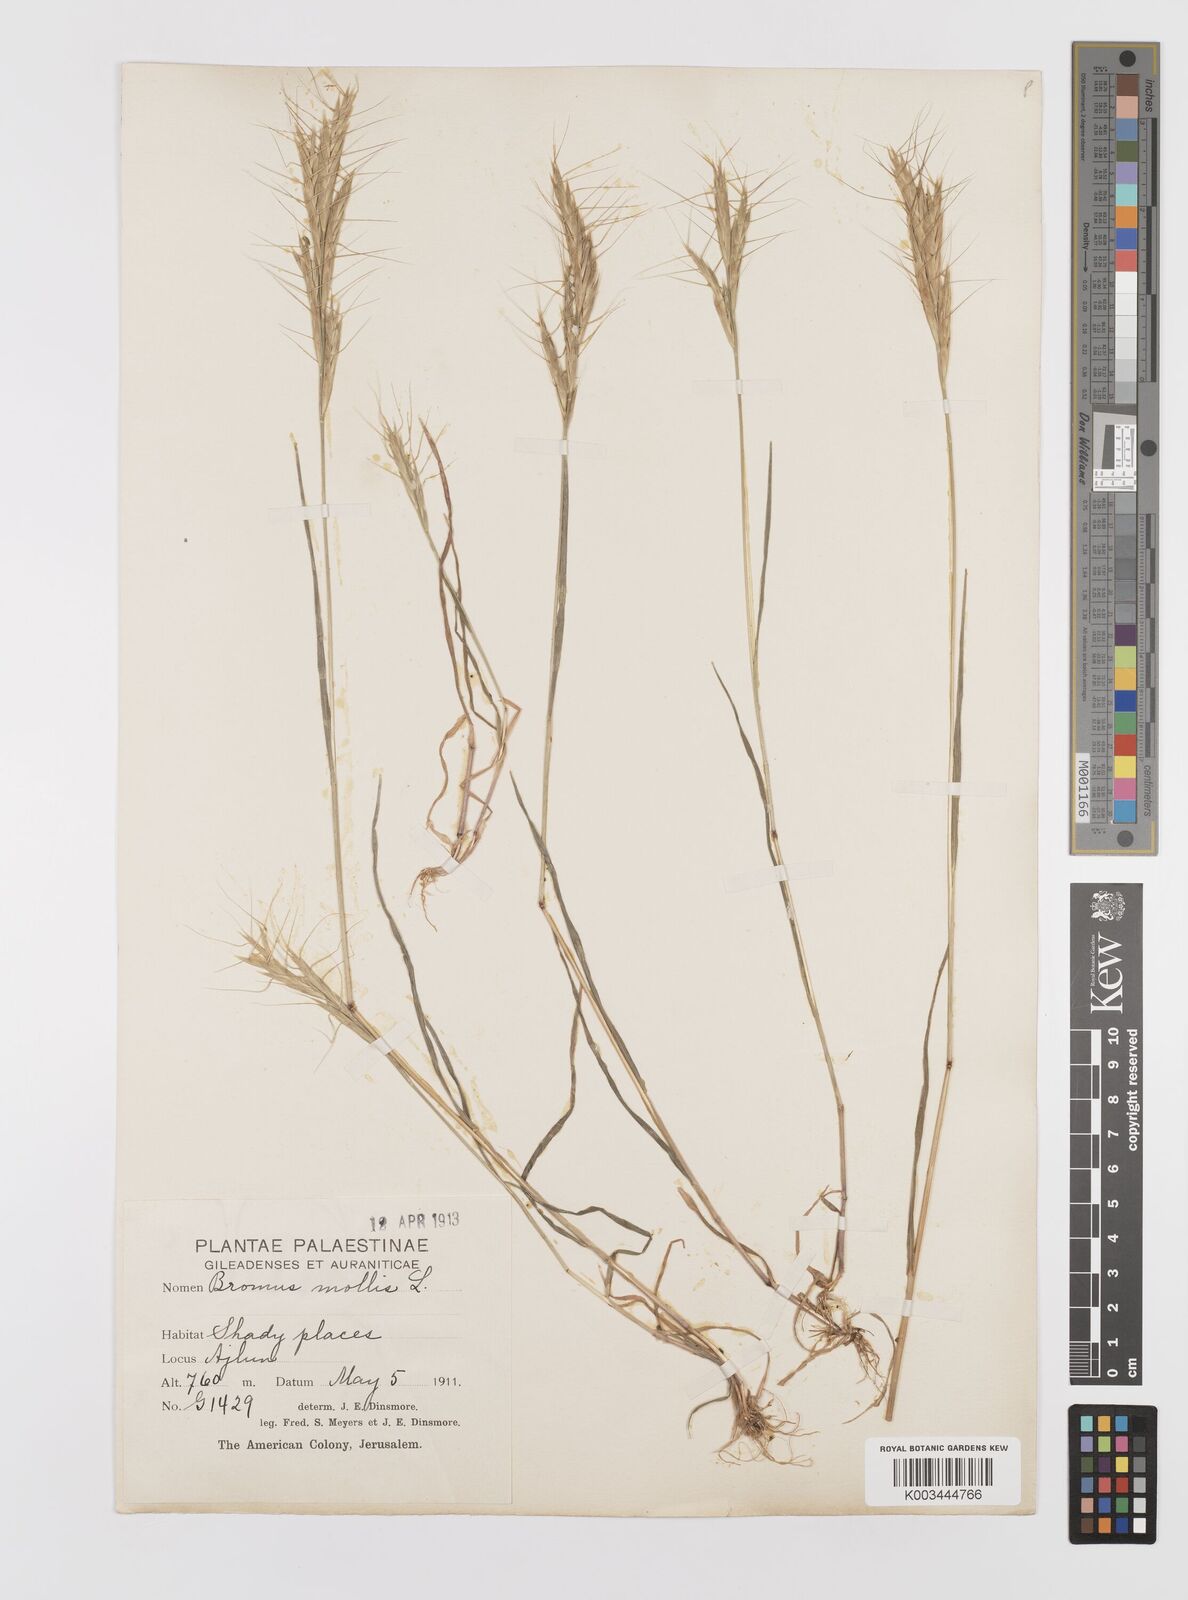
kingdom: Plantae
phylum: Tracheophyta
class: Liliopsida
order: Poales
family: Poaceae
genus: Bromus
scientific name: Bromus alopecuros
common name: Weedy brome
